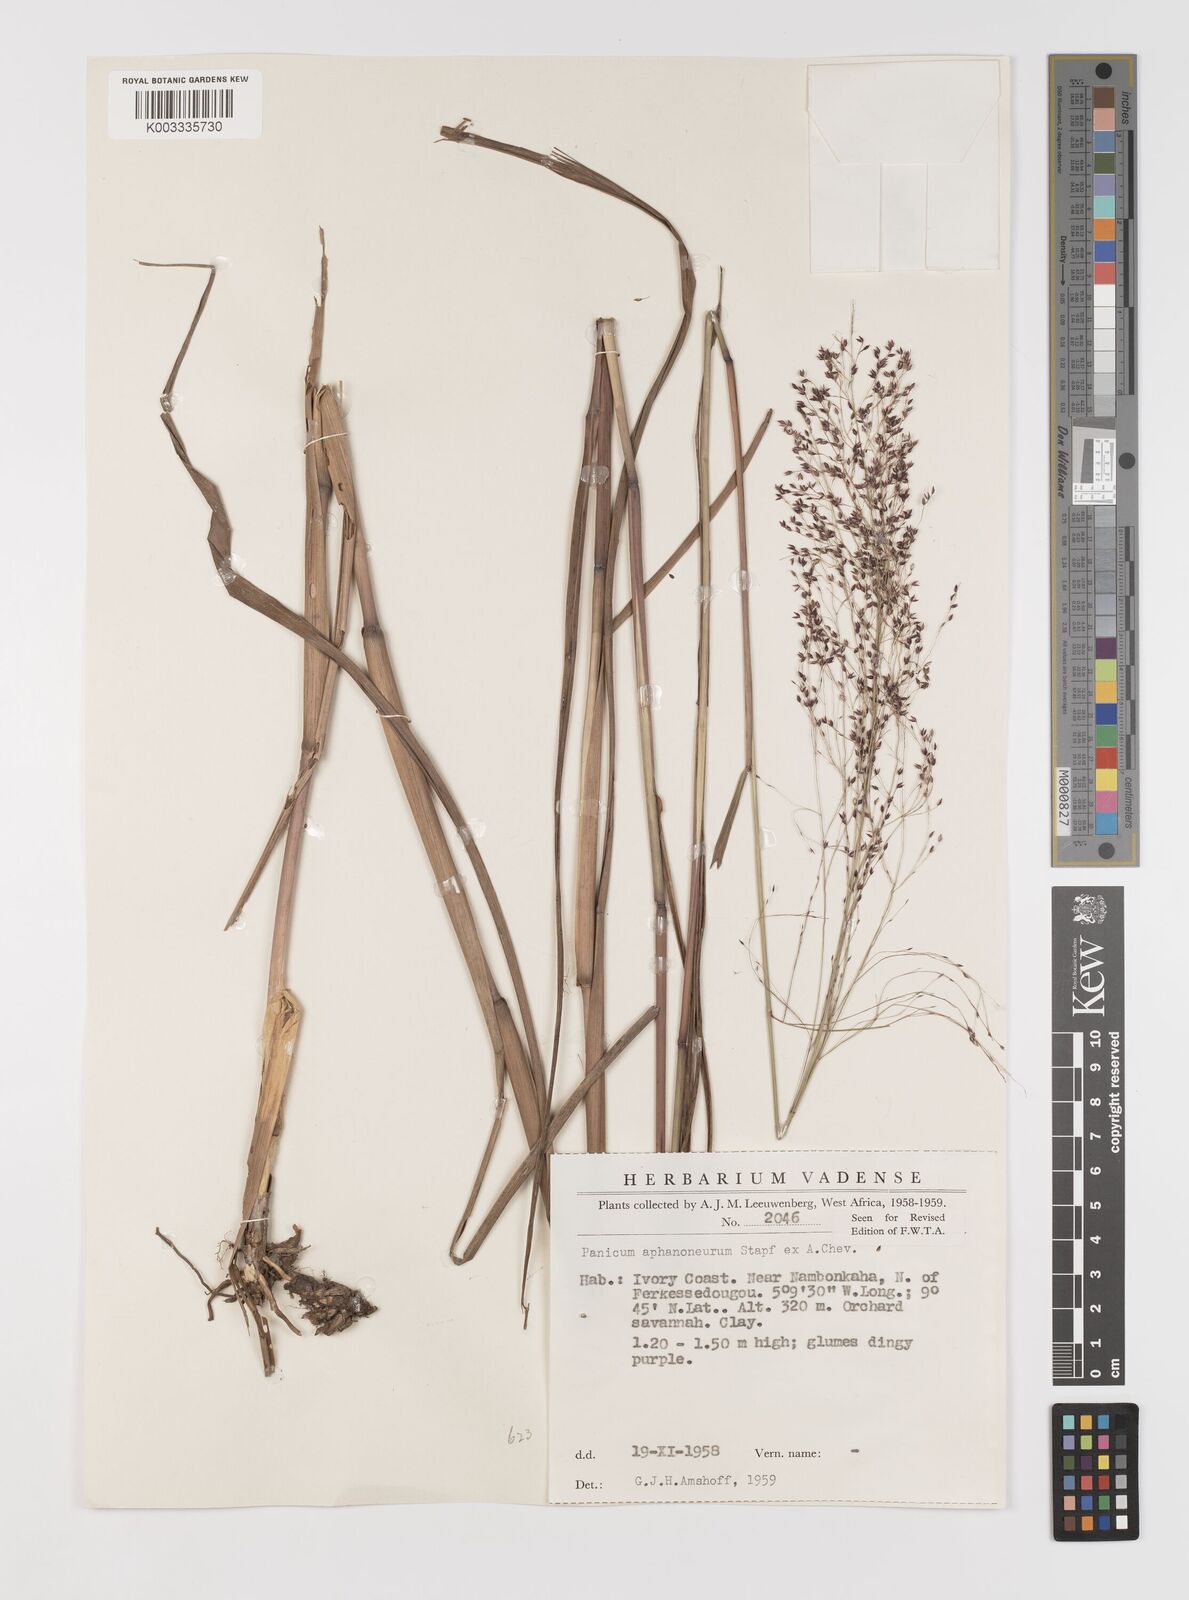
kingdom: Plantae
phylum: Tracheophyta
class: Liliopsida
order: Poales
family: Poaceae
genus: Panicum
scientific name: Panicum fluviicola
